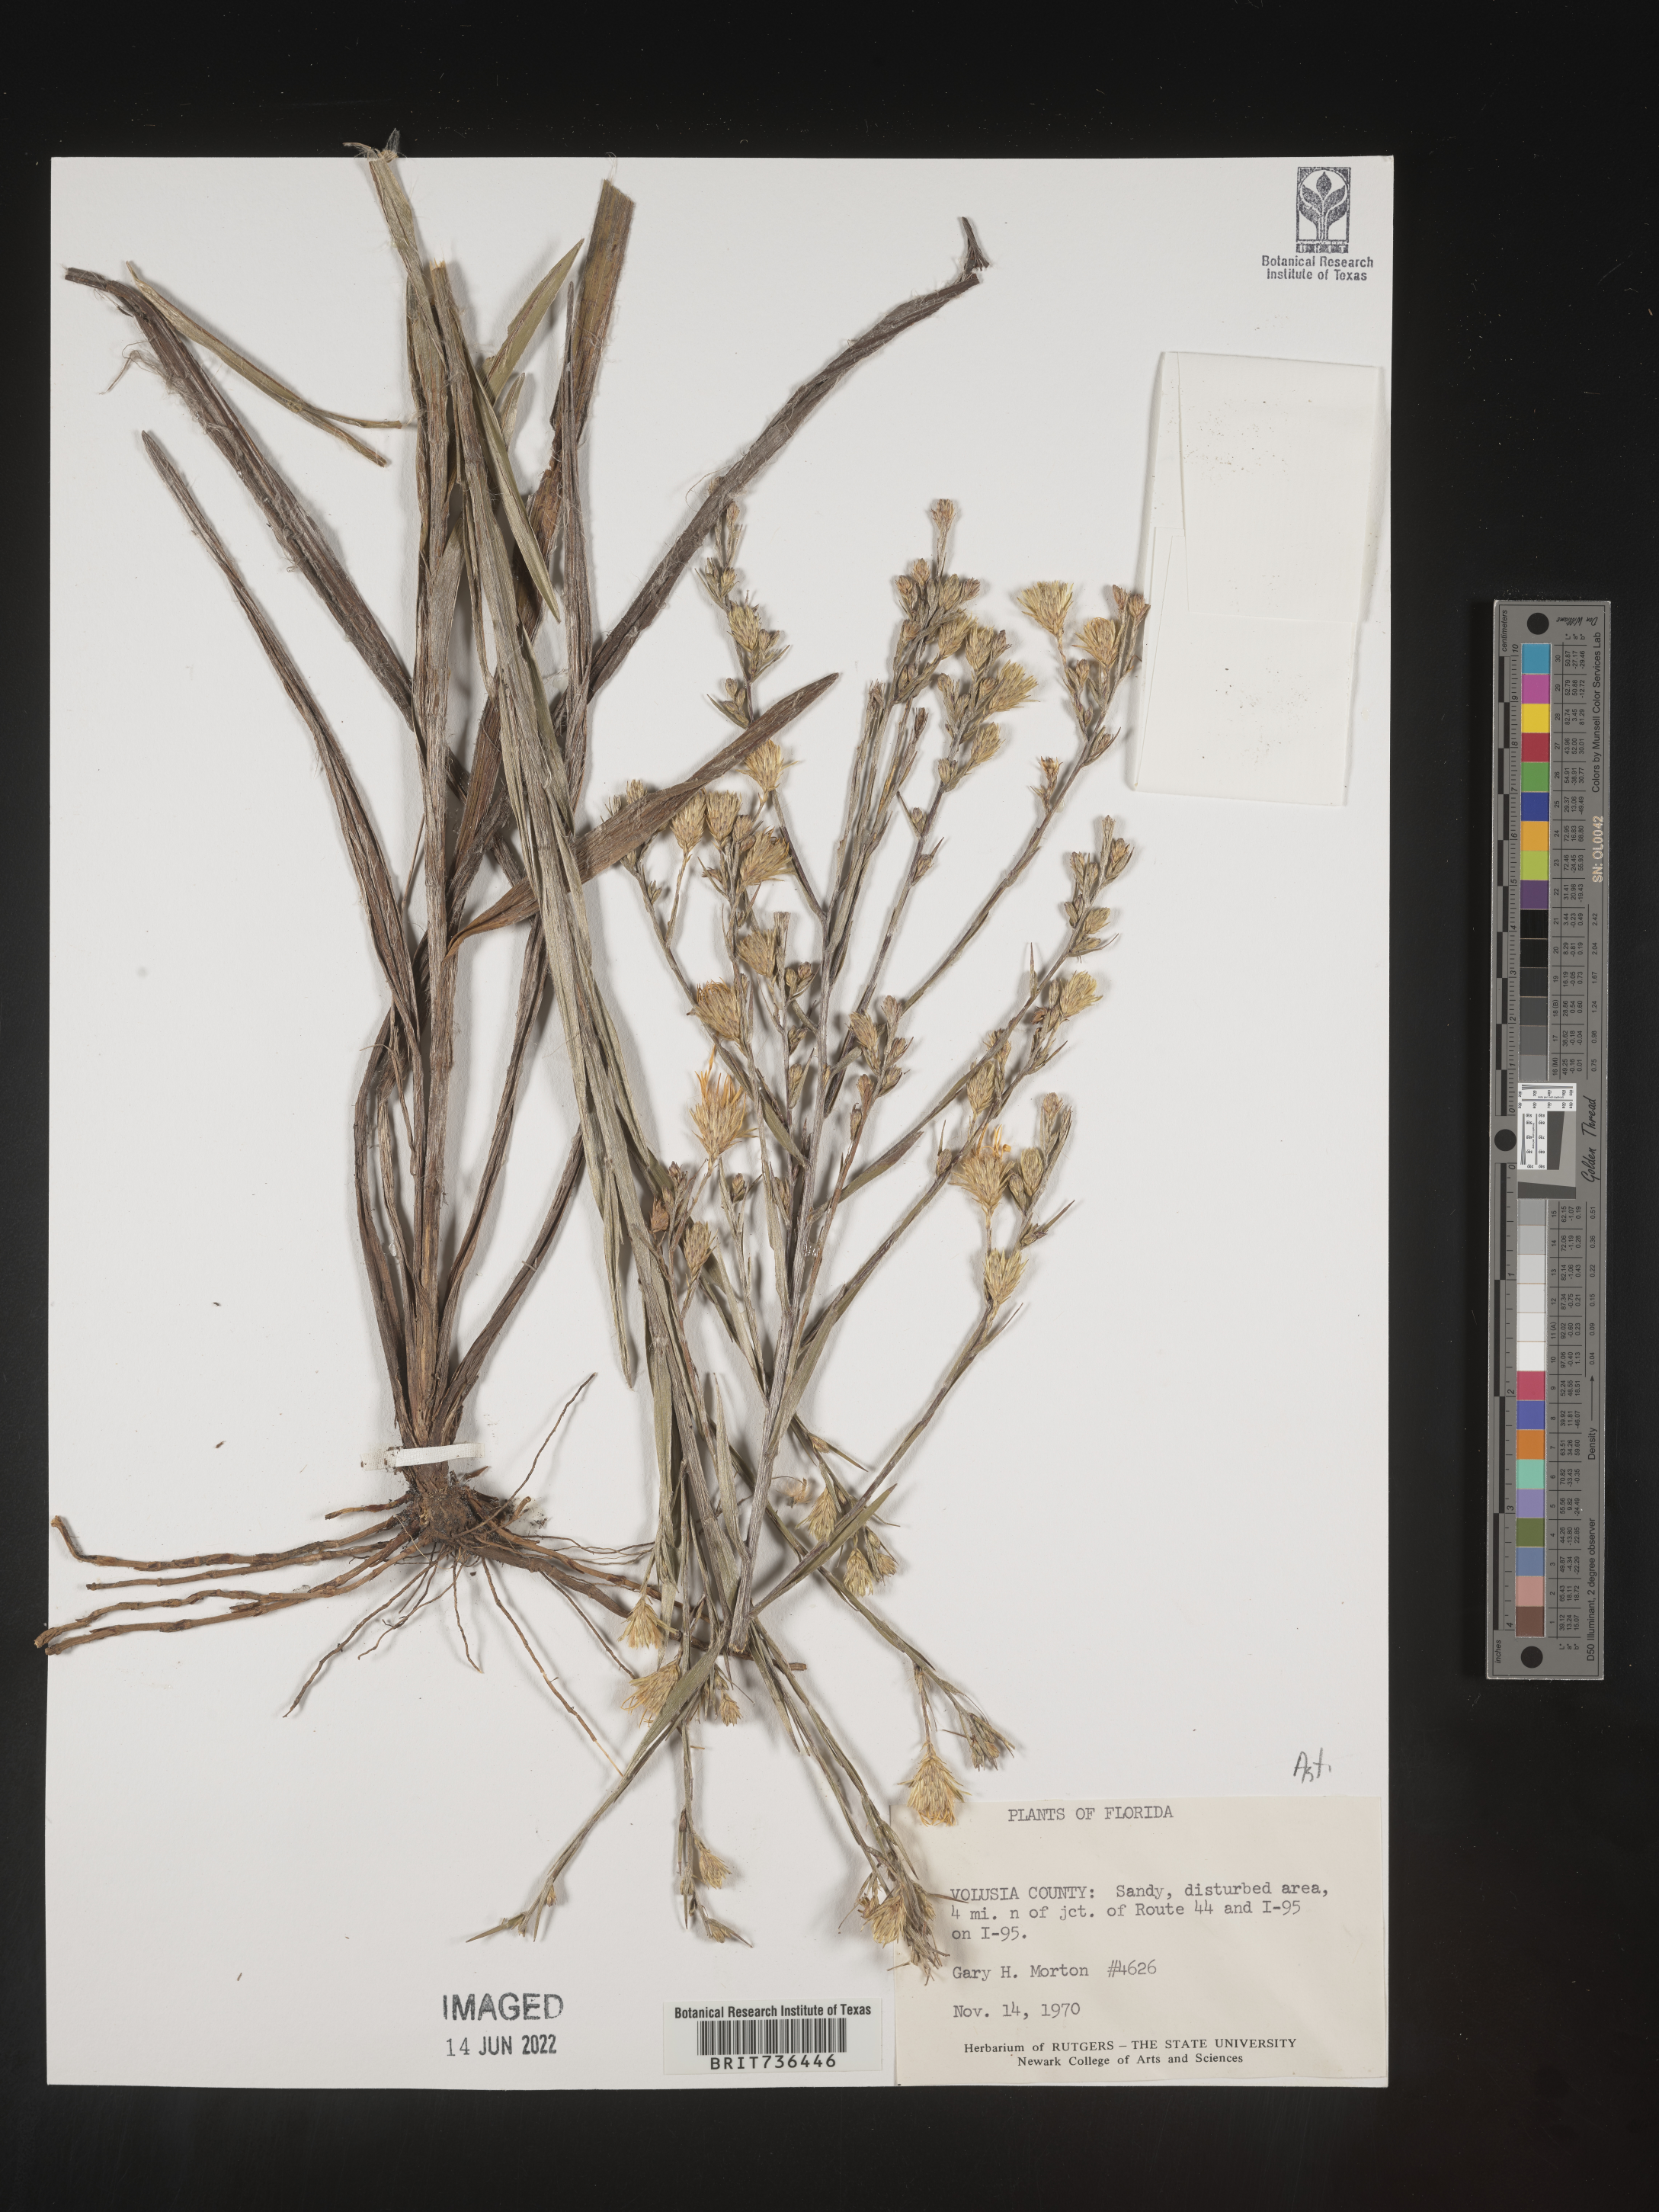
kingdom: Plantae
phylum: Tracheophyta
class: Magnoliopsida
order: Asterales
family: Asteraceae
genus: Pityopsis
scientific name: Pityopsis tracyi
